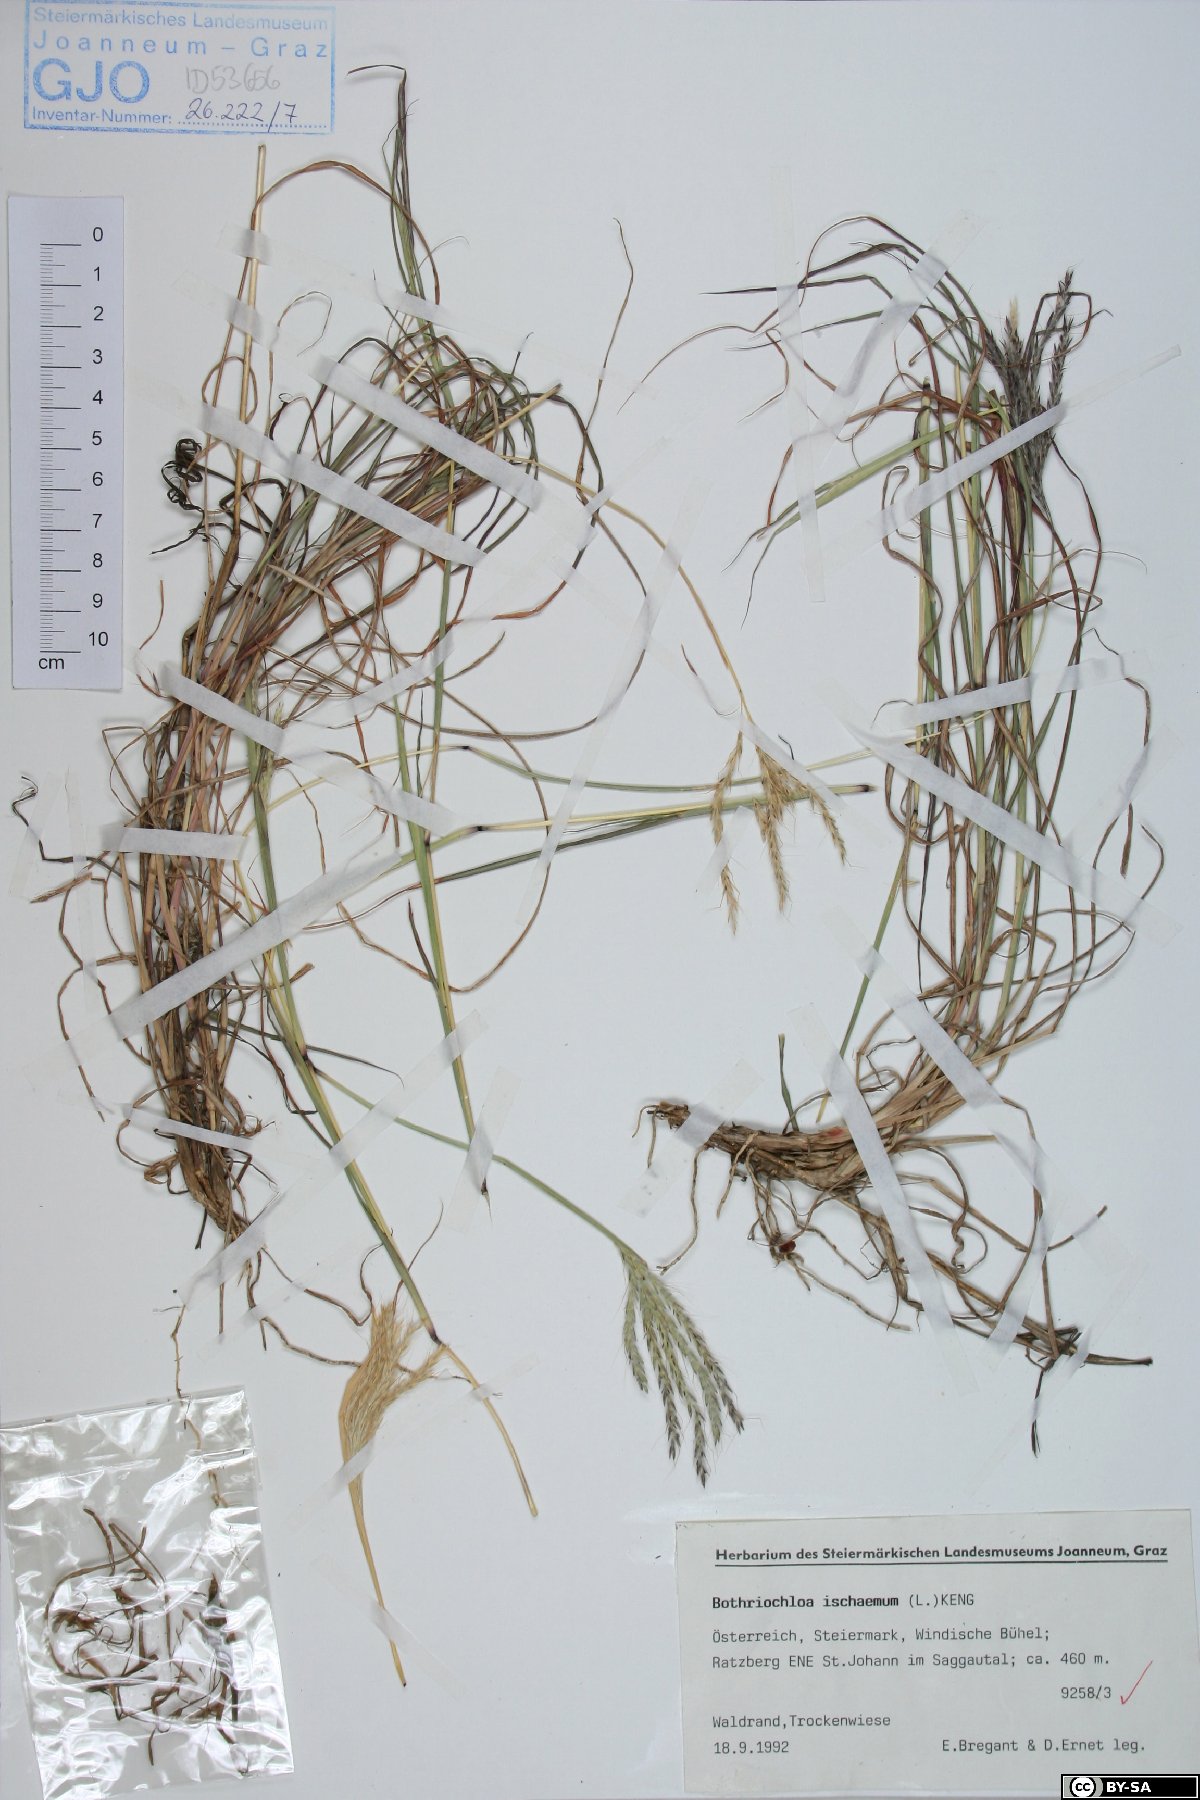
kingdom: Plantae
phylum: Tracheophyta
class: Liliopsida
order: Poales
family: Poaceae
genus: Bothriochloa
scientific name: Bothriochloa ischaemum
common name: Yellow bluestem
